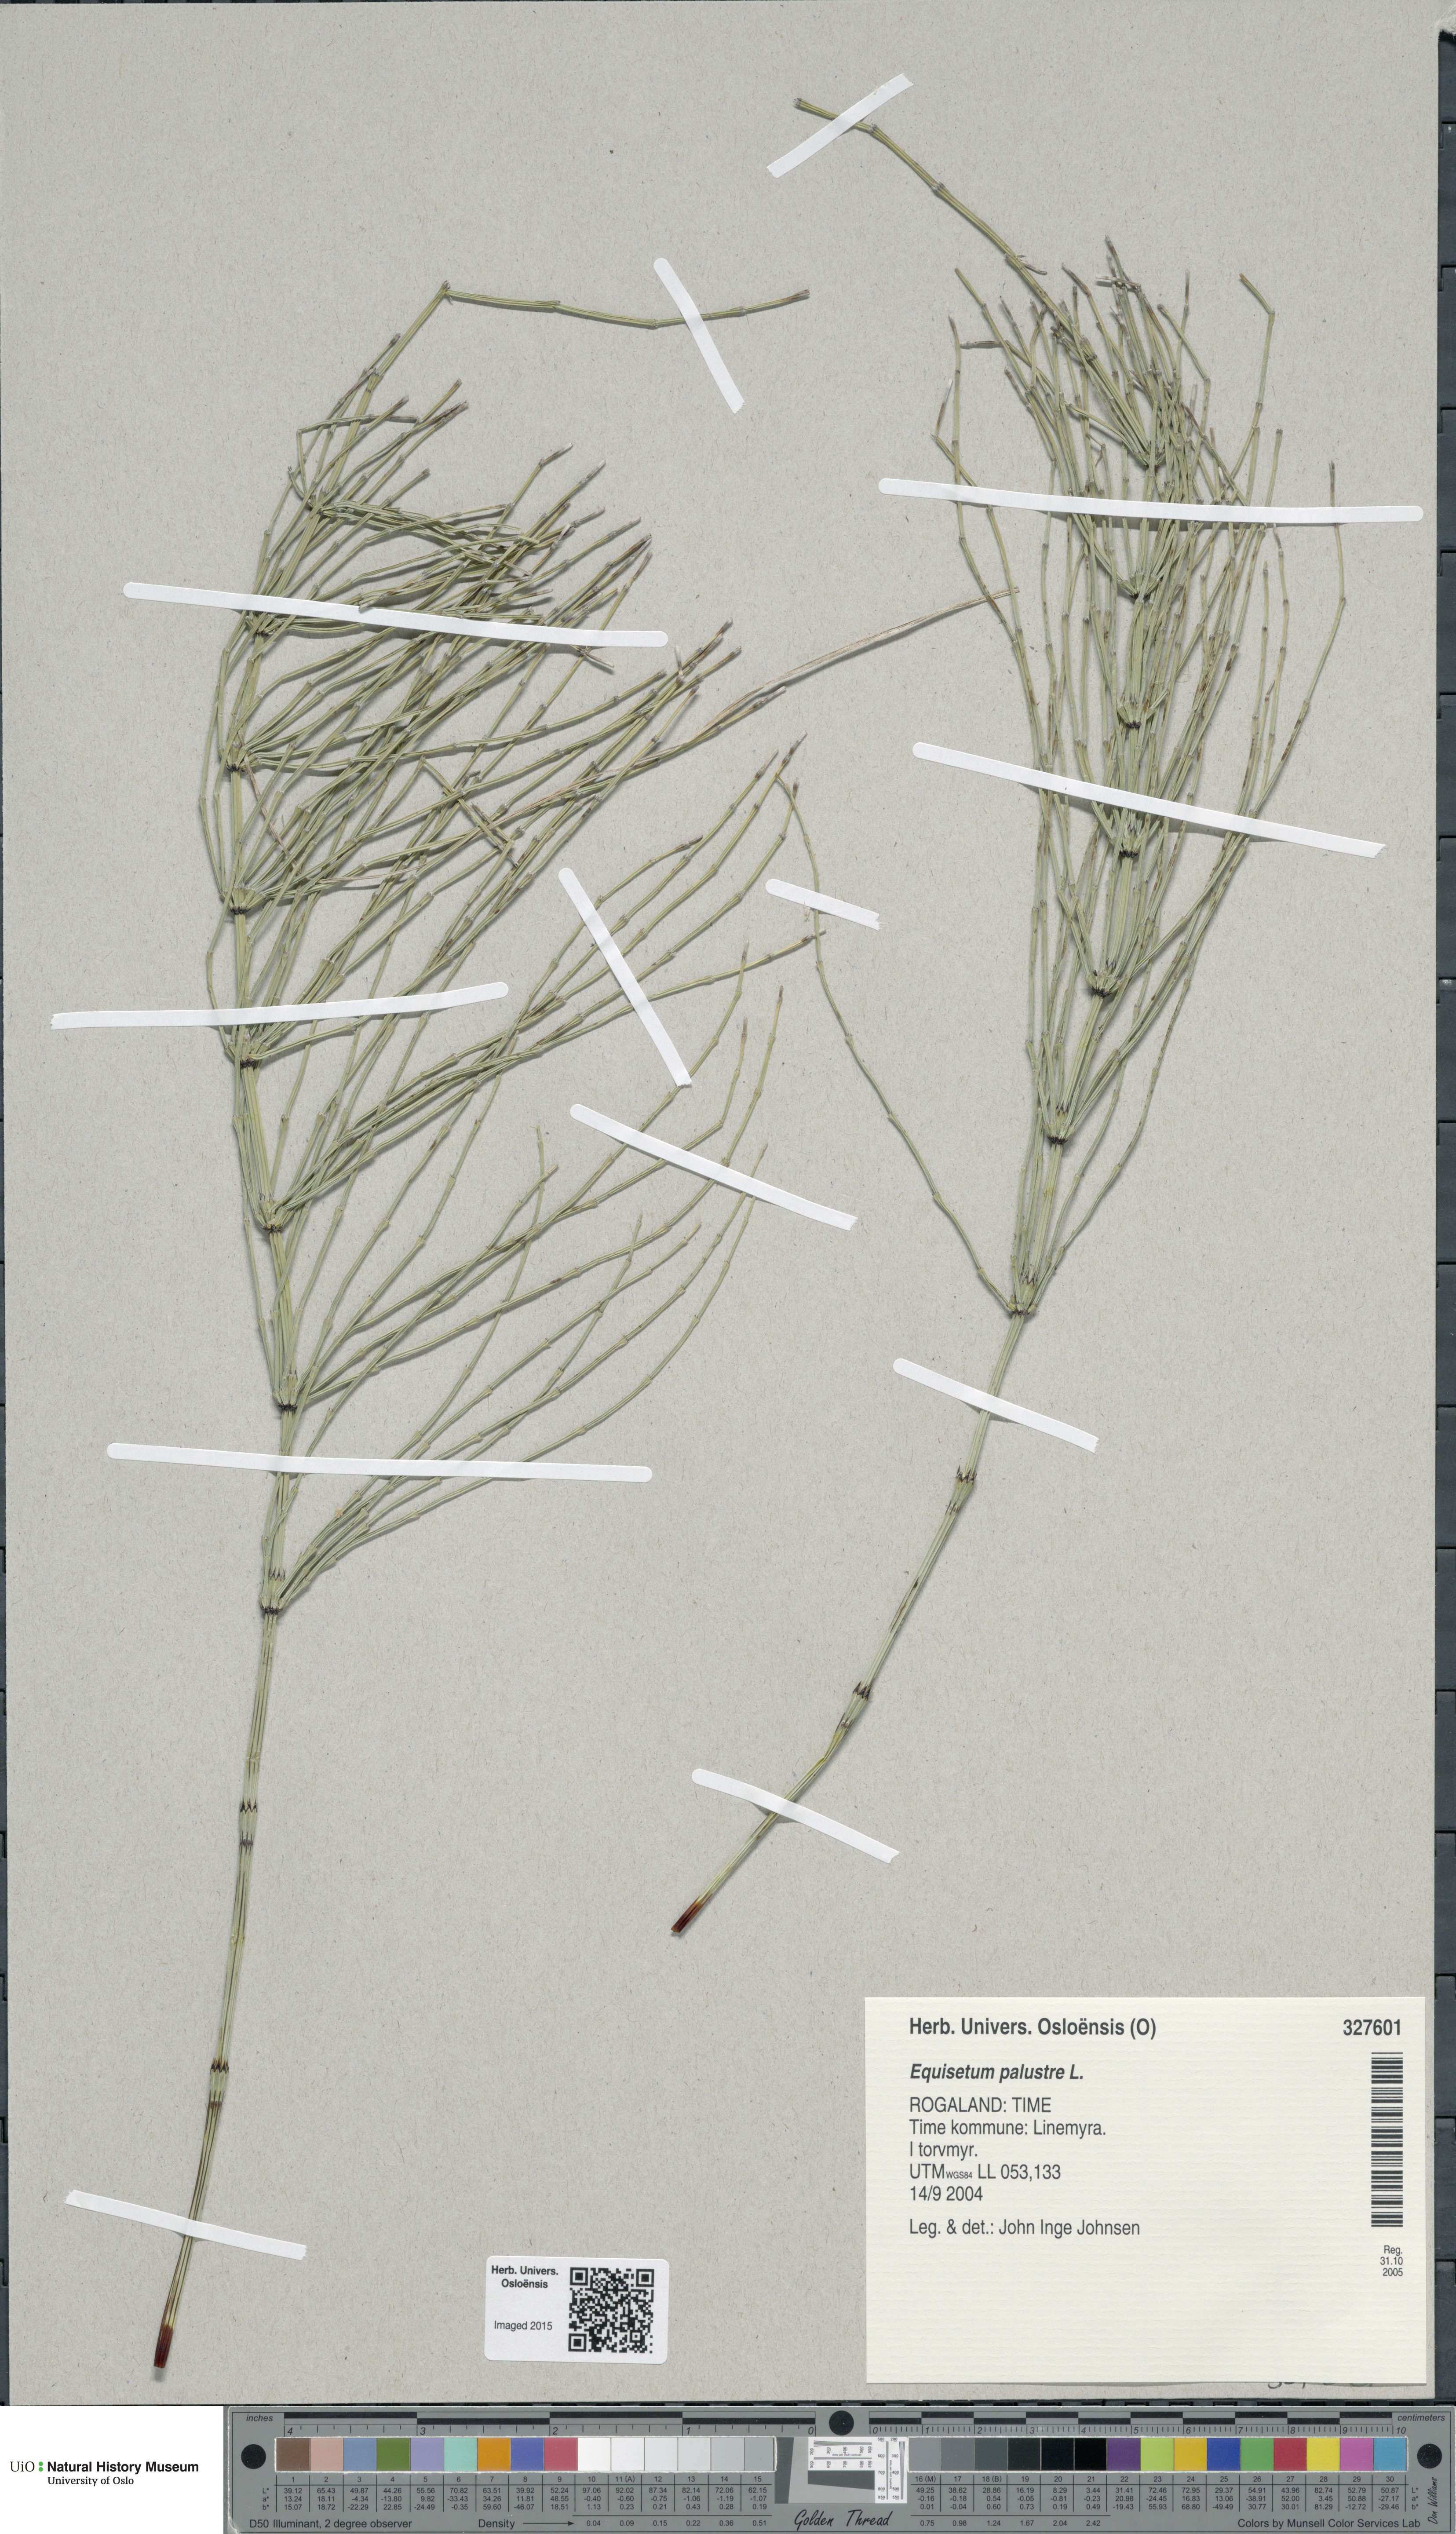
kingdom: Plantae
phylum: Tracheophyta
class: Polypodiopsida
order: Equisetales
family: Equisetaceae
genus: Equisetum
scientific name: Equisetum palustre
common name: Marsh horsetail
